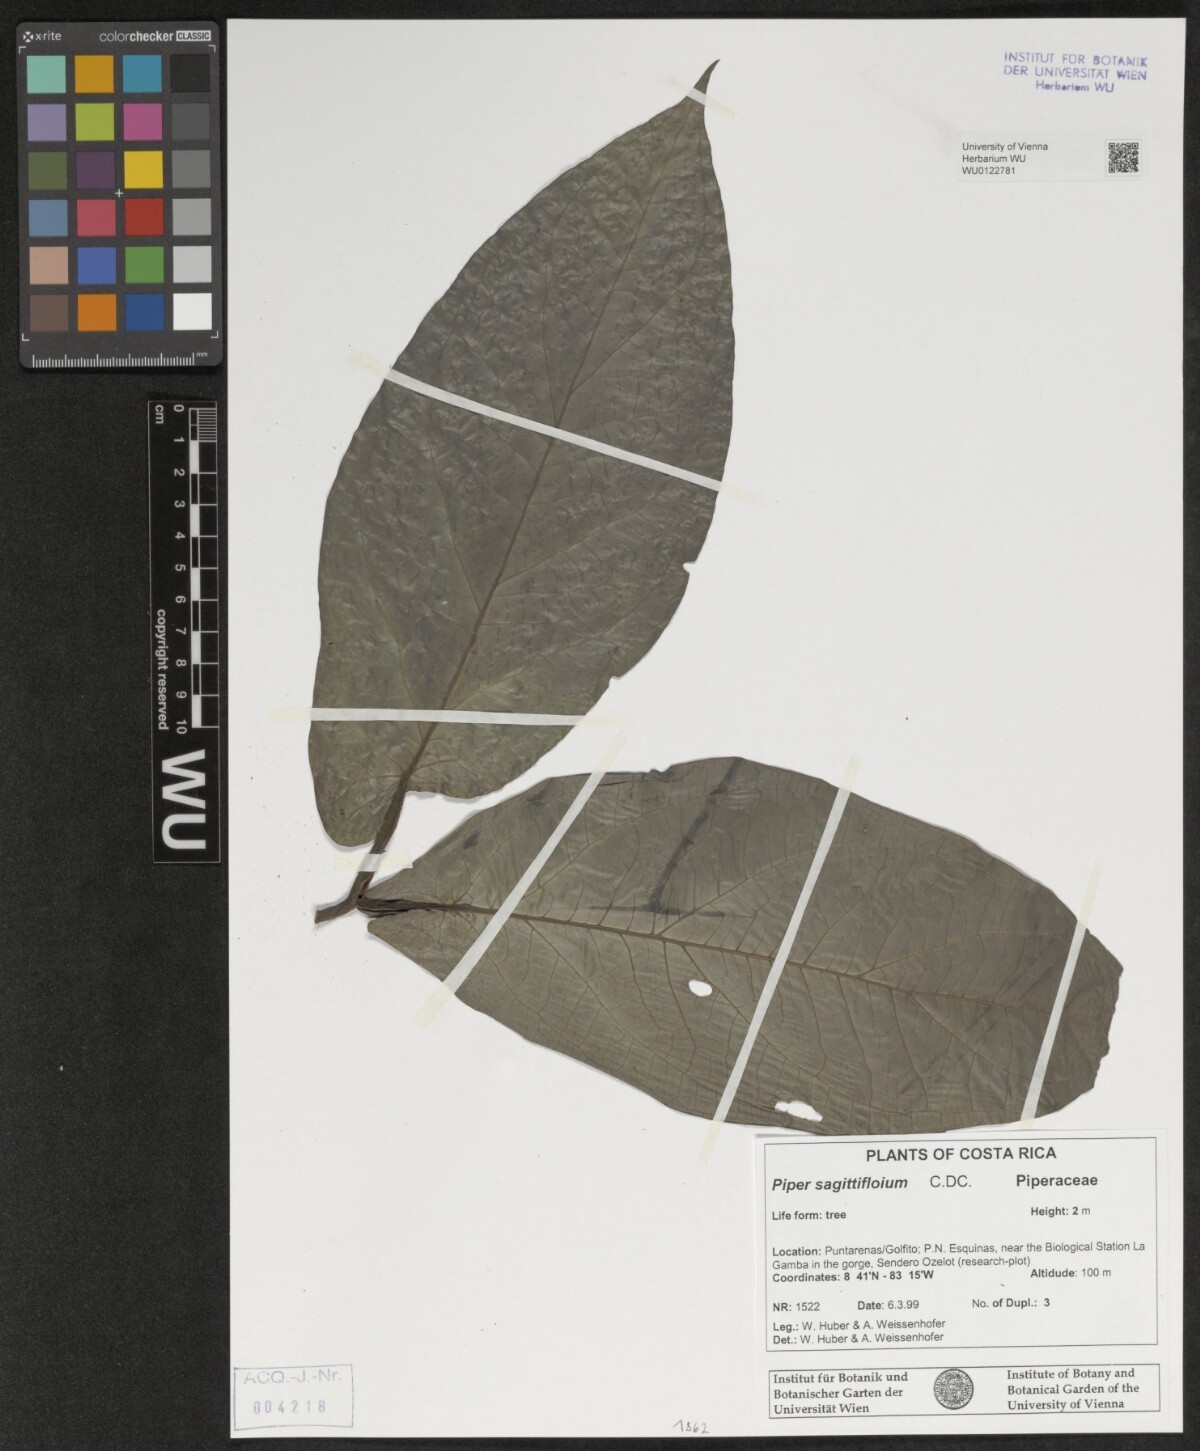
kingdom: Plantae
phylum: Tracheophyta
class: Magnoliopsida
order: Piperales
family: Piperaceae
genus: Piper
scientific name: Piper sagittifolium
